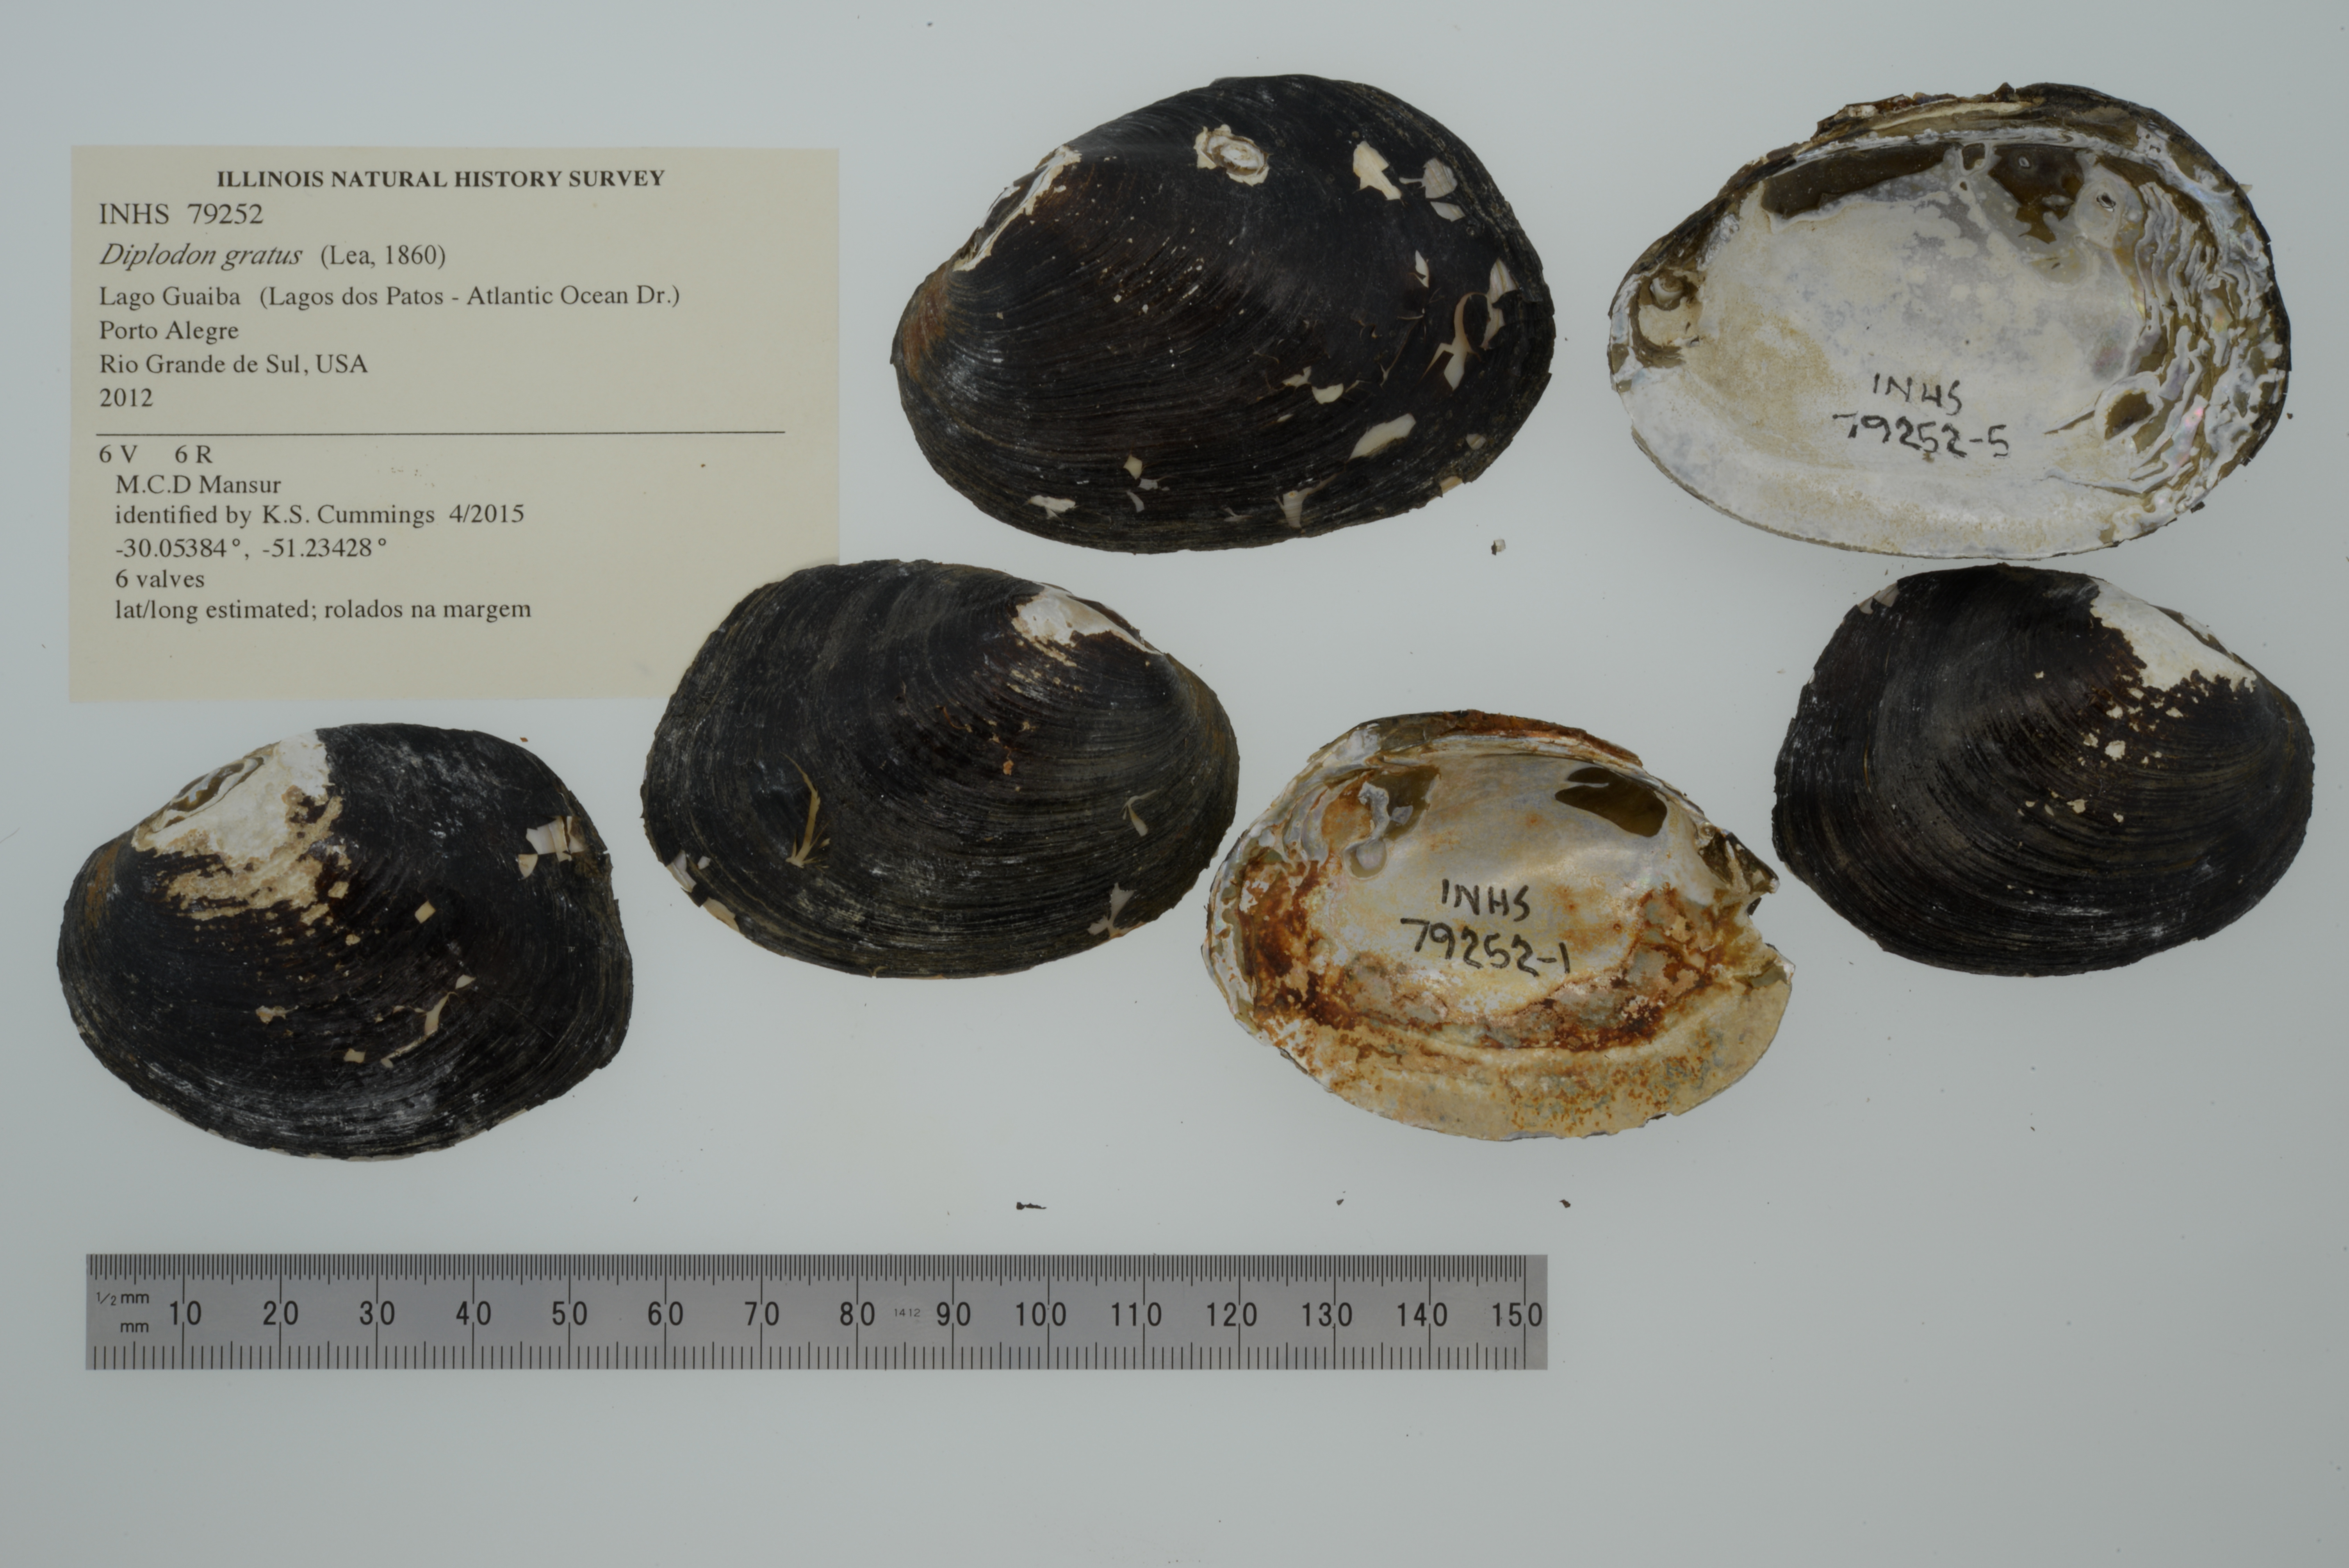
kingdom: Animalia
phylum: Mollusca
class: Bivalvia
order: Unionida
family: Hyriidae
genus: Diplodon
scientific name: Diplodon gratus
